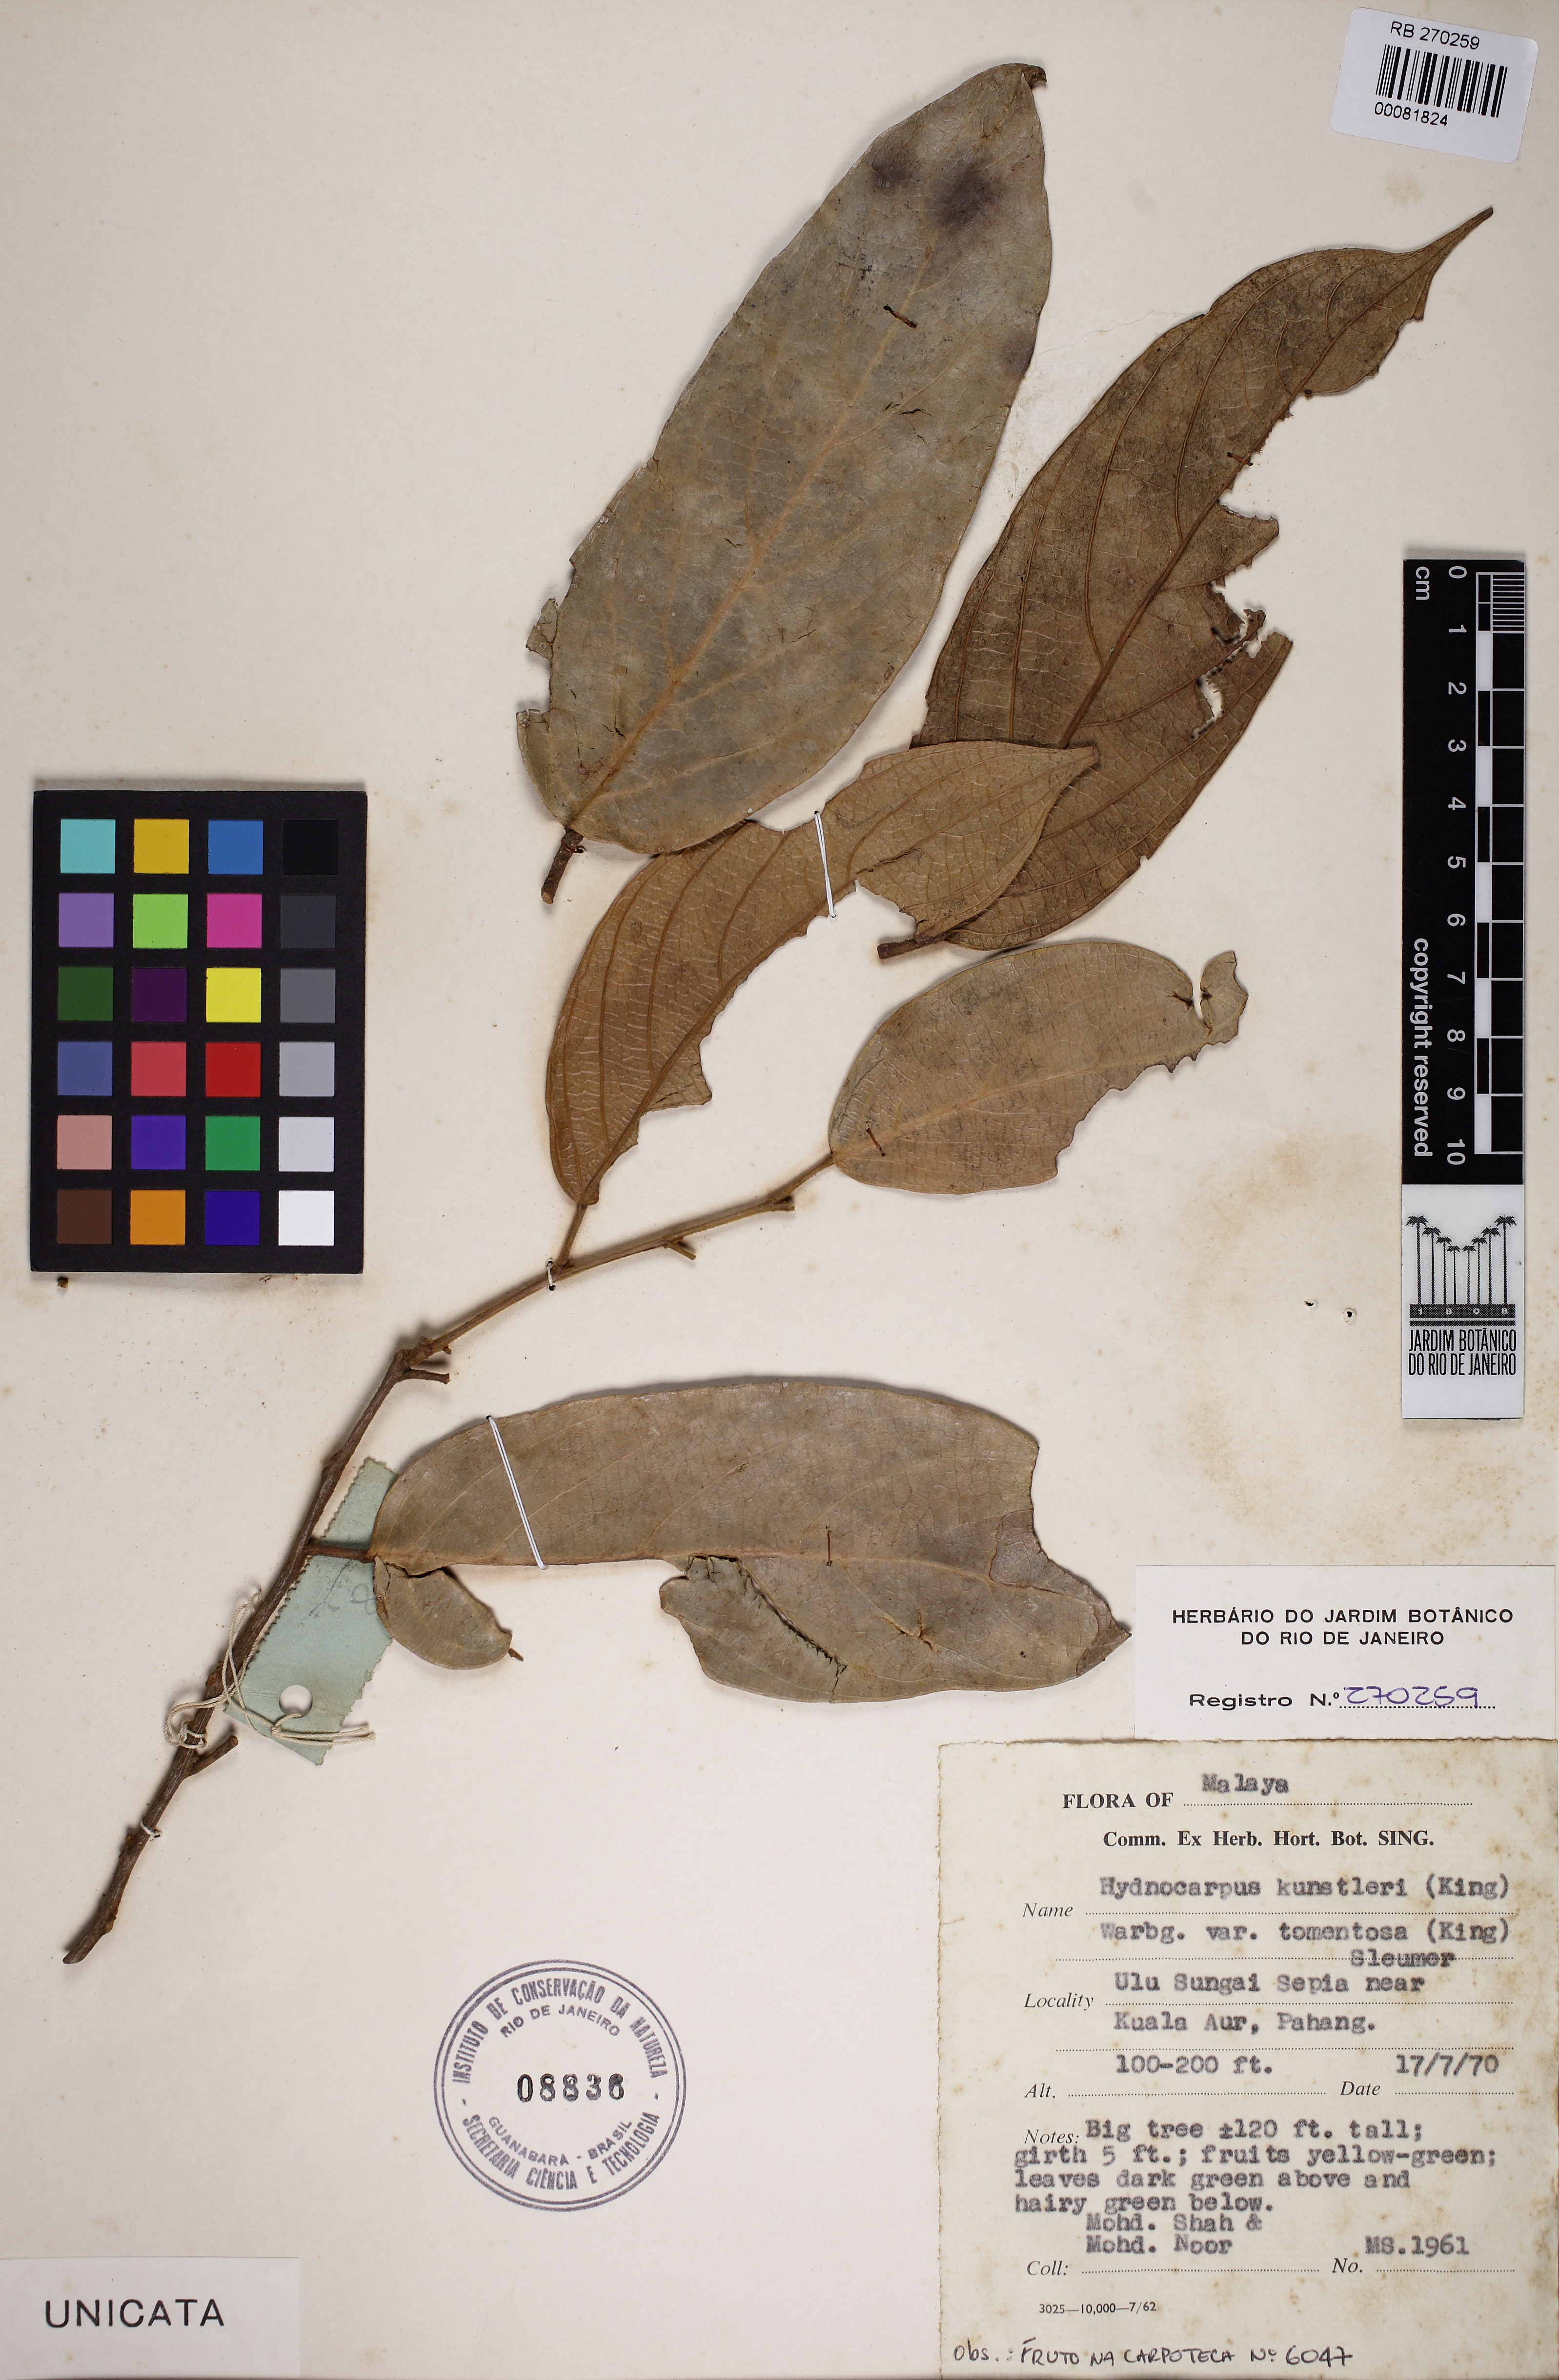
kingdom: Plantae
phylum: Tracheophyta
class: Magnoliopsida
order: Malpighiales
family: Flacourtiaceae
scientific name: Flacourtiaceae
